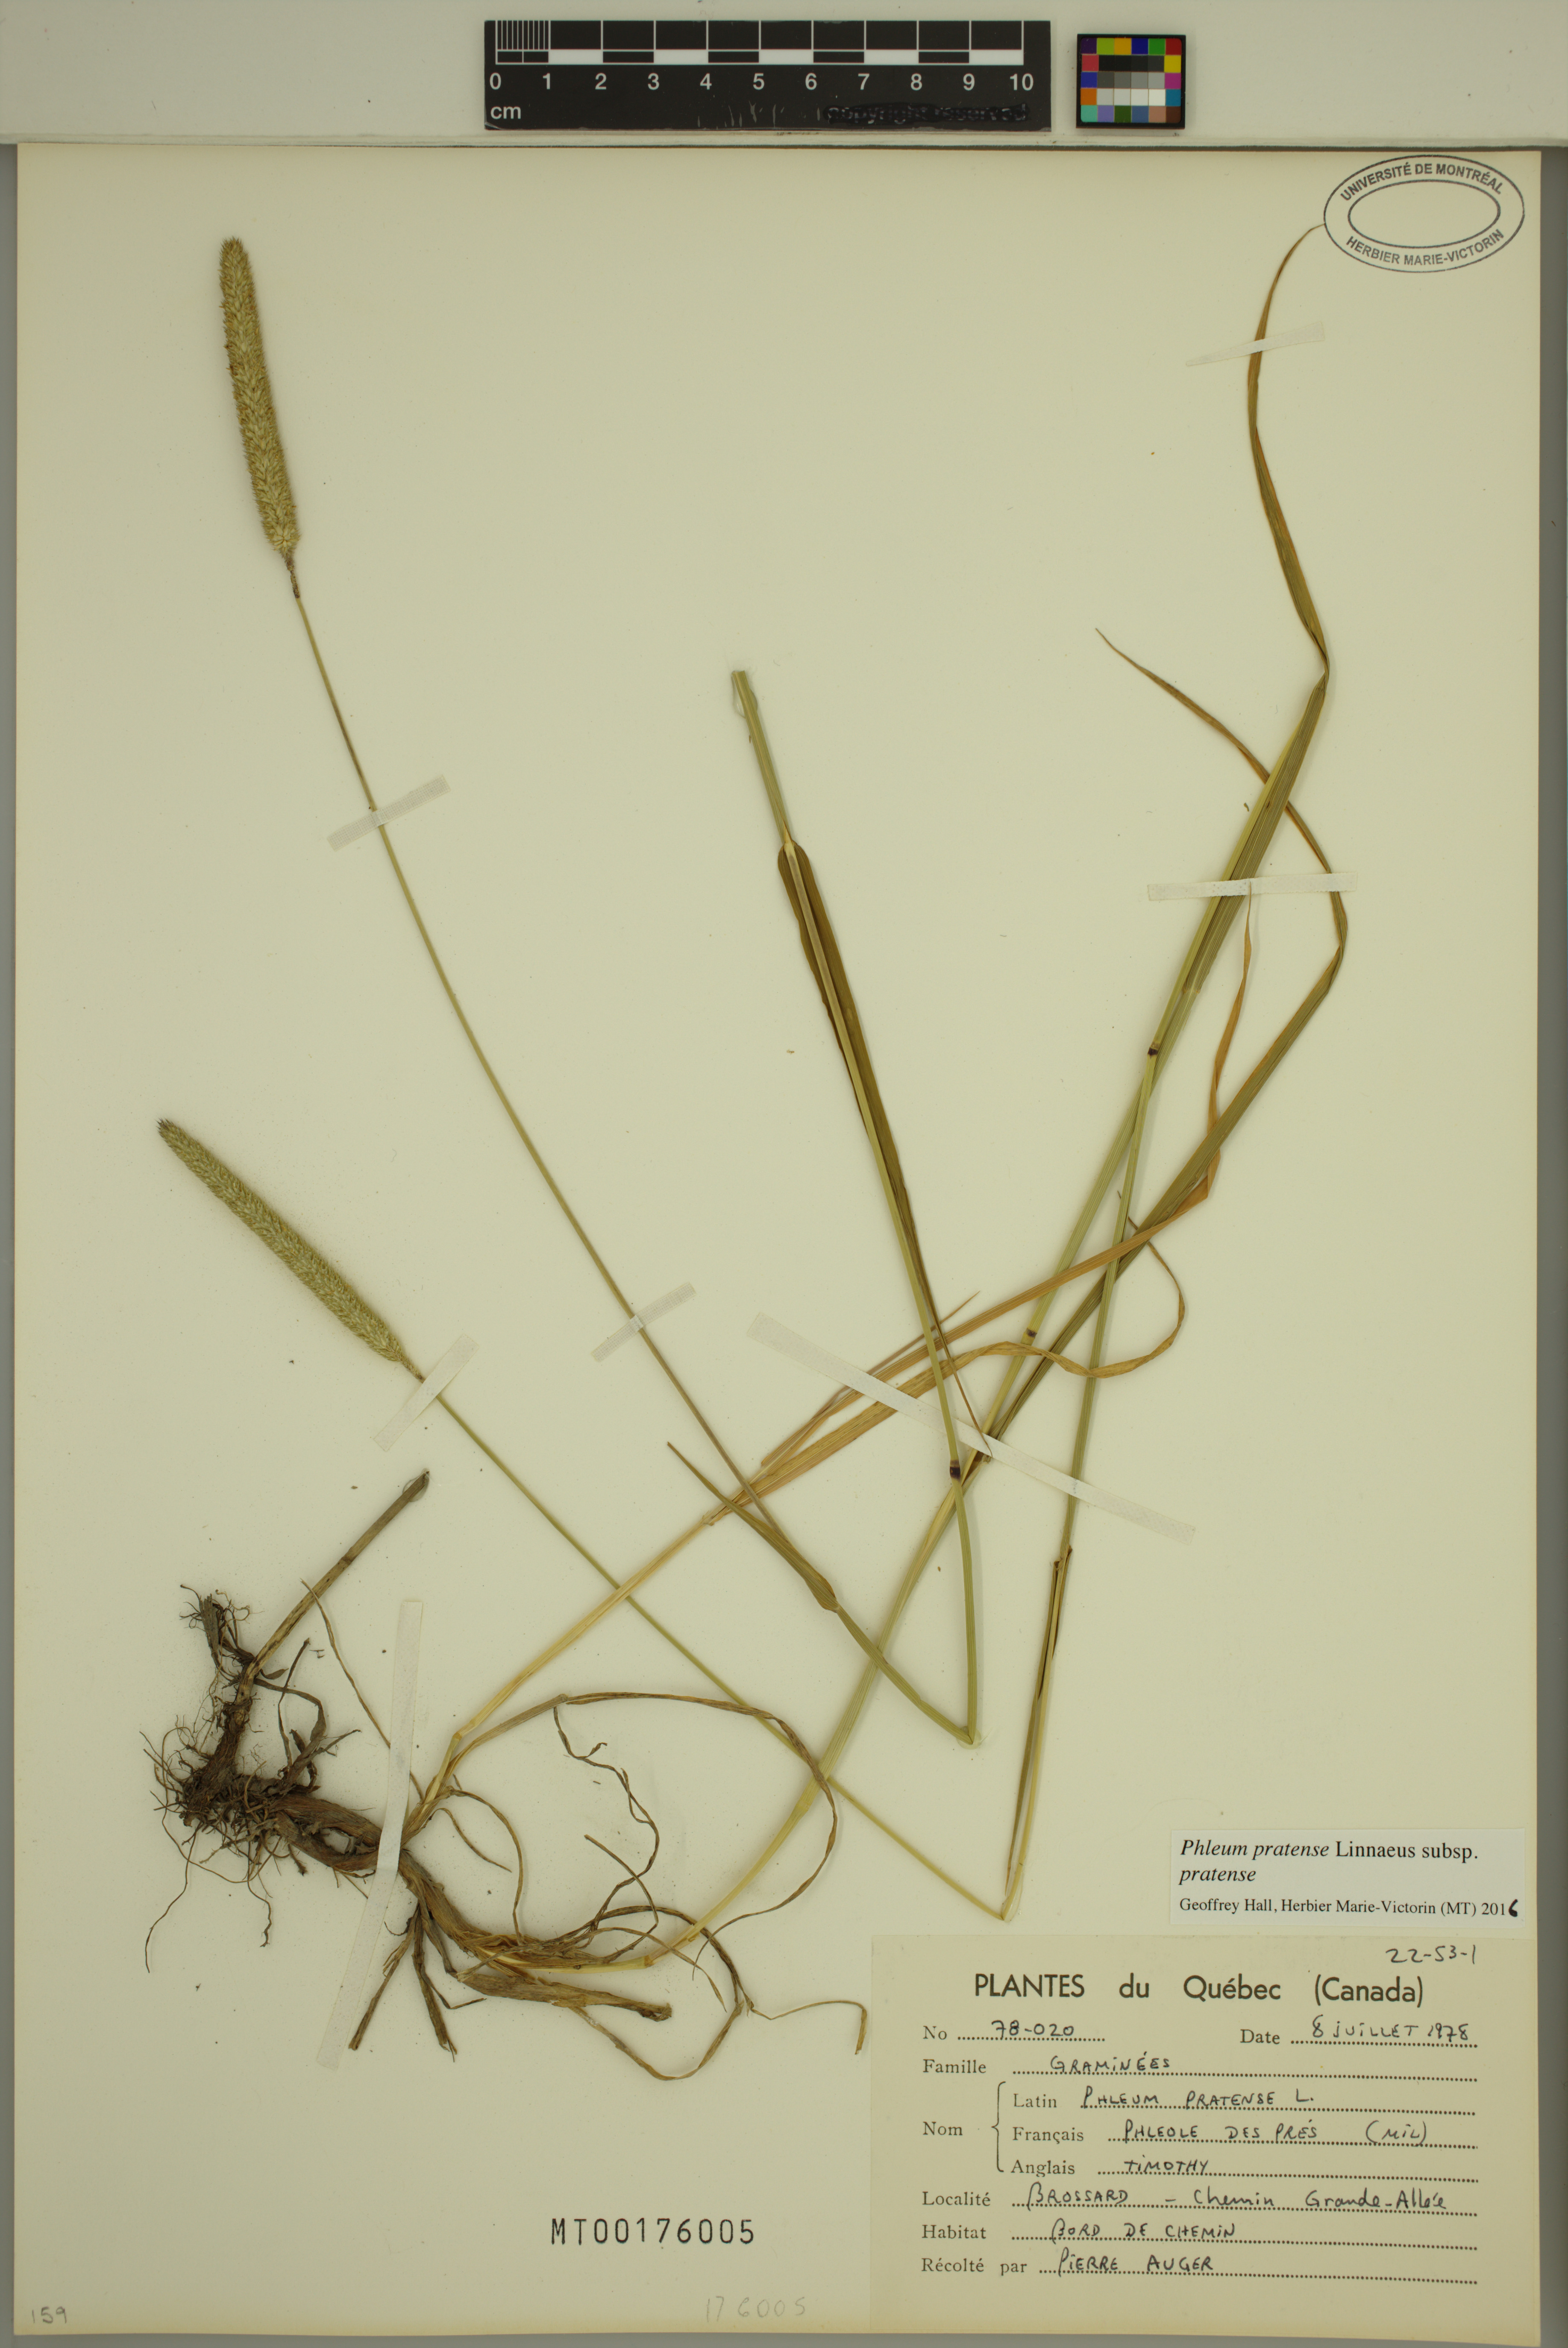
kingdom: Plantae
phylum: Tracheophyta
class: Liliopsida
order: Poales
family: Poaceae
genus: Phleum
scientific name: Phleum pratense
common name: Timothy grass
